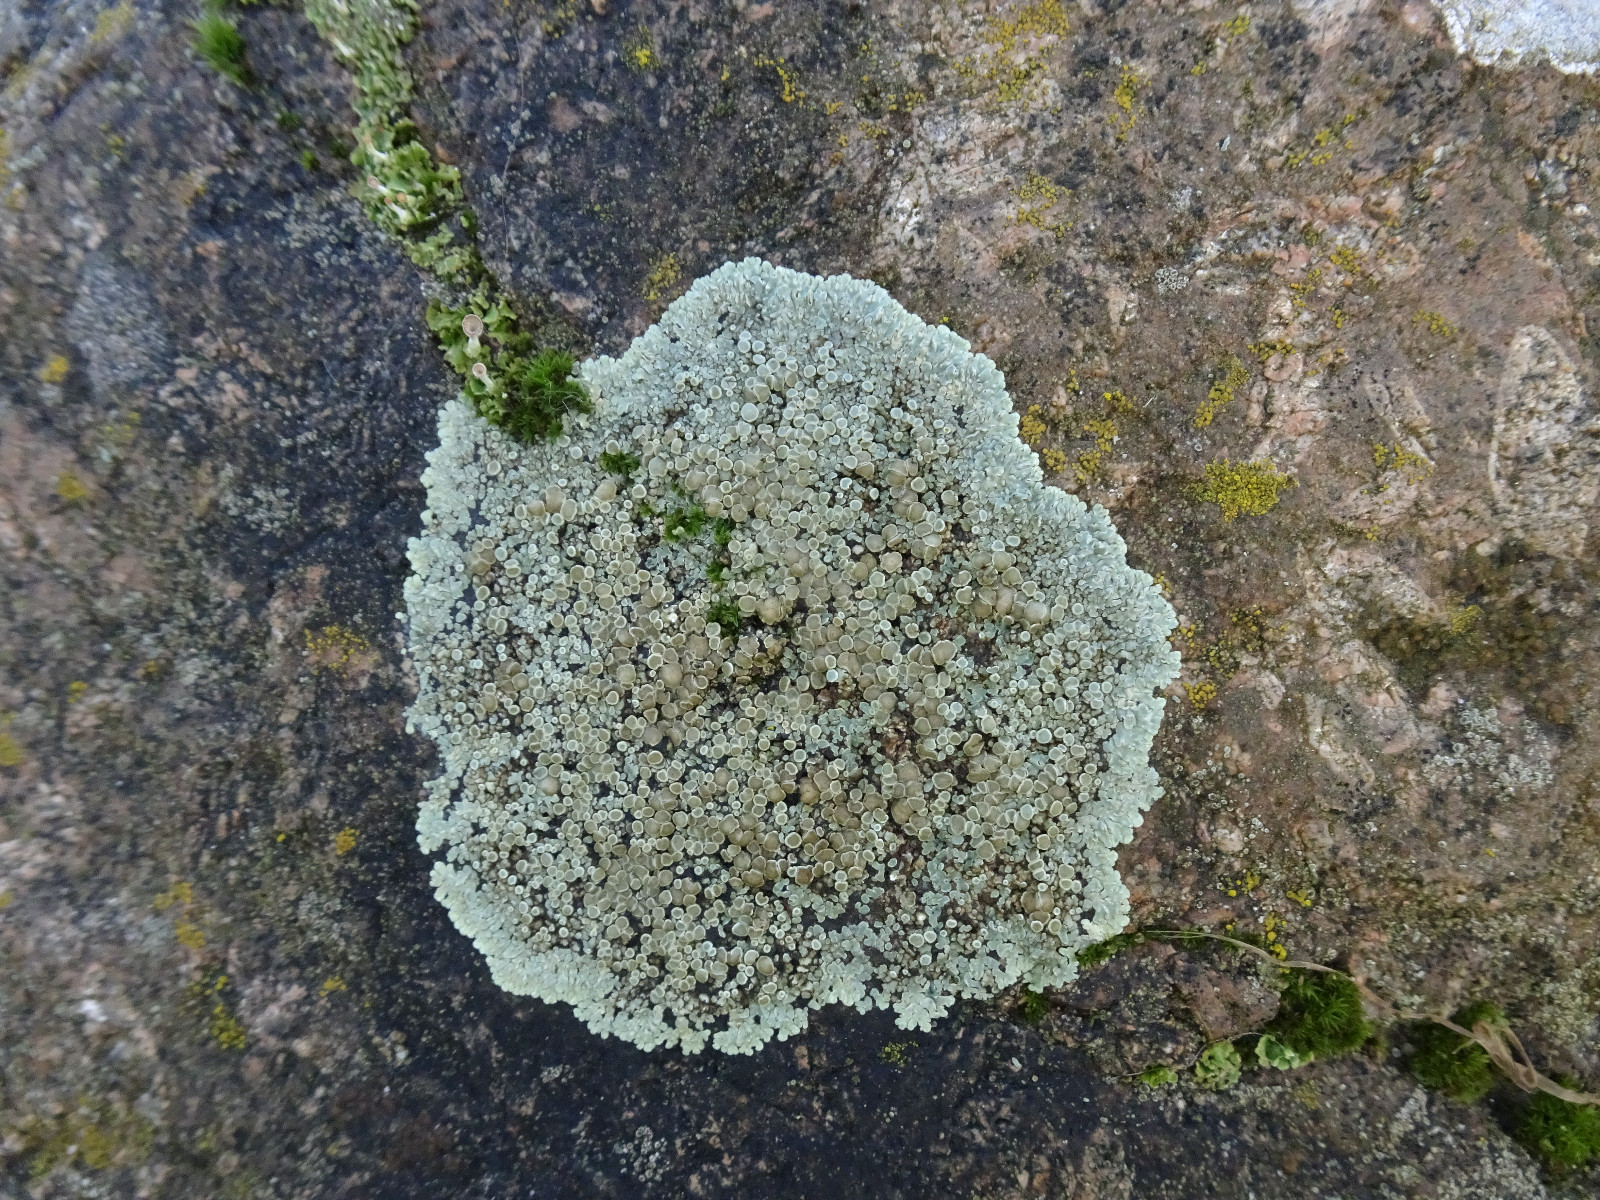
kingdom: Fungi
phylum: Ascomycota
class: Lecanoromycetes
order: Lecanorales
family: Lecanoraceae
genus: Protoparmeliopsis
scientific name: Protoparmeliopsis muralis
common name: randfliget kantskivelav
